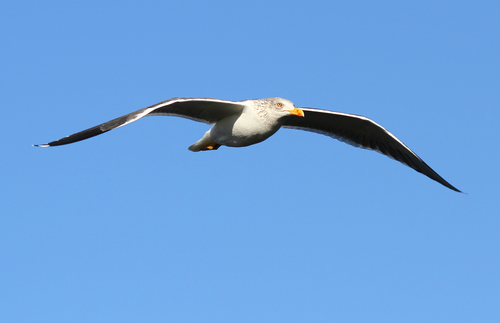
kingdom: Animalia
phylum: Chordata
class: Aves
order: Charadriiformes
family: Laridae
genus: Larus
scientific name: Larus michahellis
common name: Yellow-legged gull
